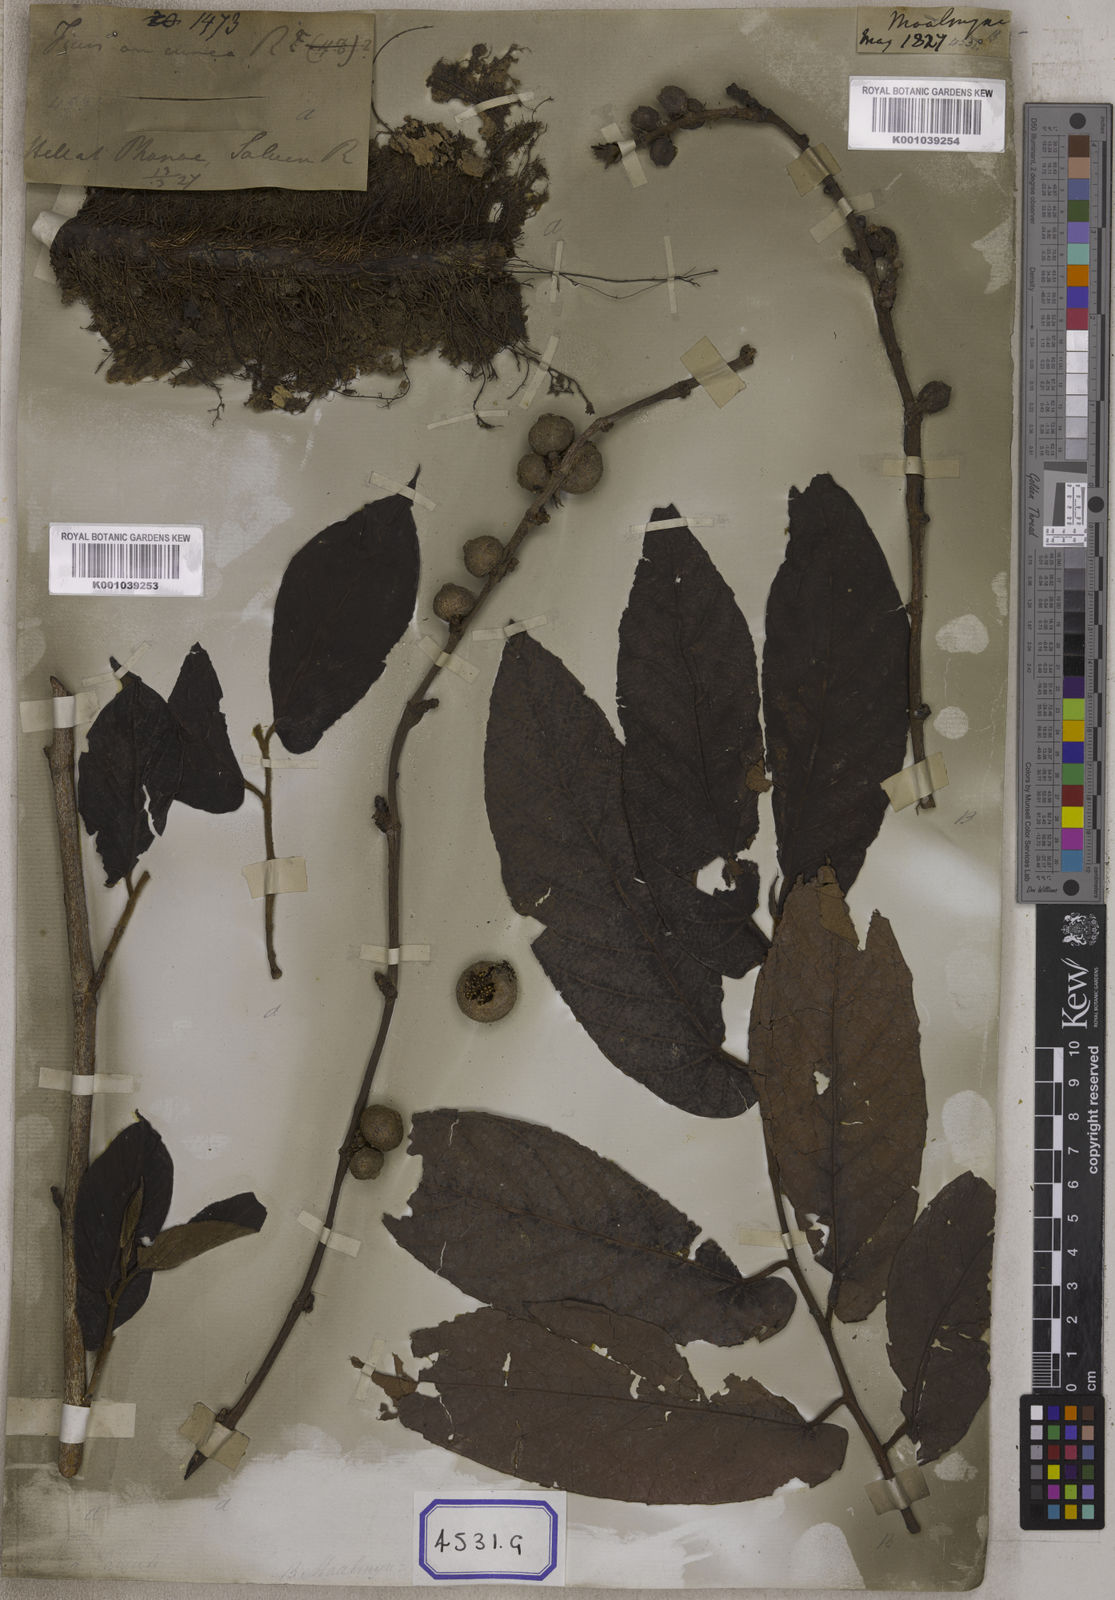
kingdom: Plantae
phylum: Tracheophyta
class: Magnoliopsida
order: Rosales
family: Moraceae
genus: Ficus
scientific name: Ficus semicordata
